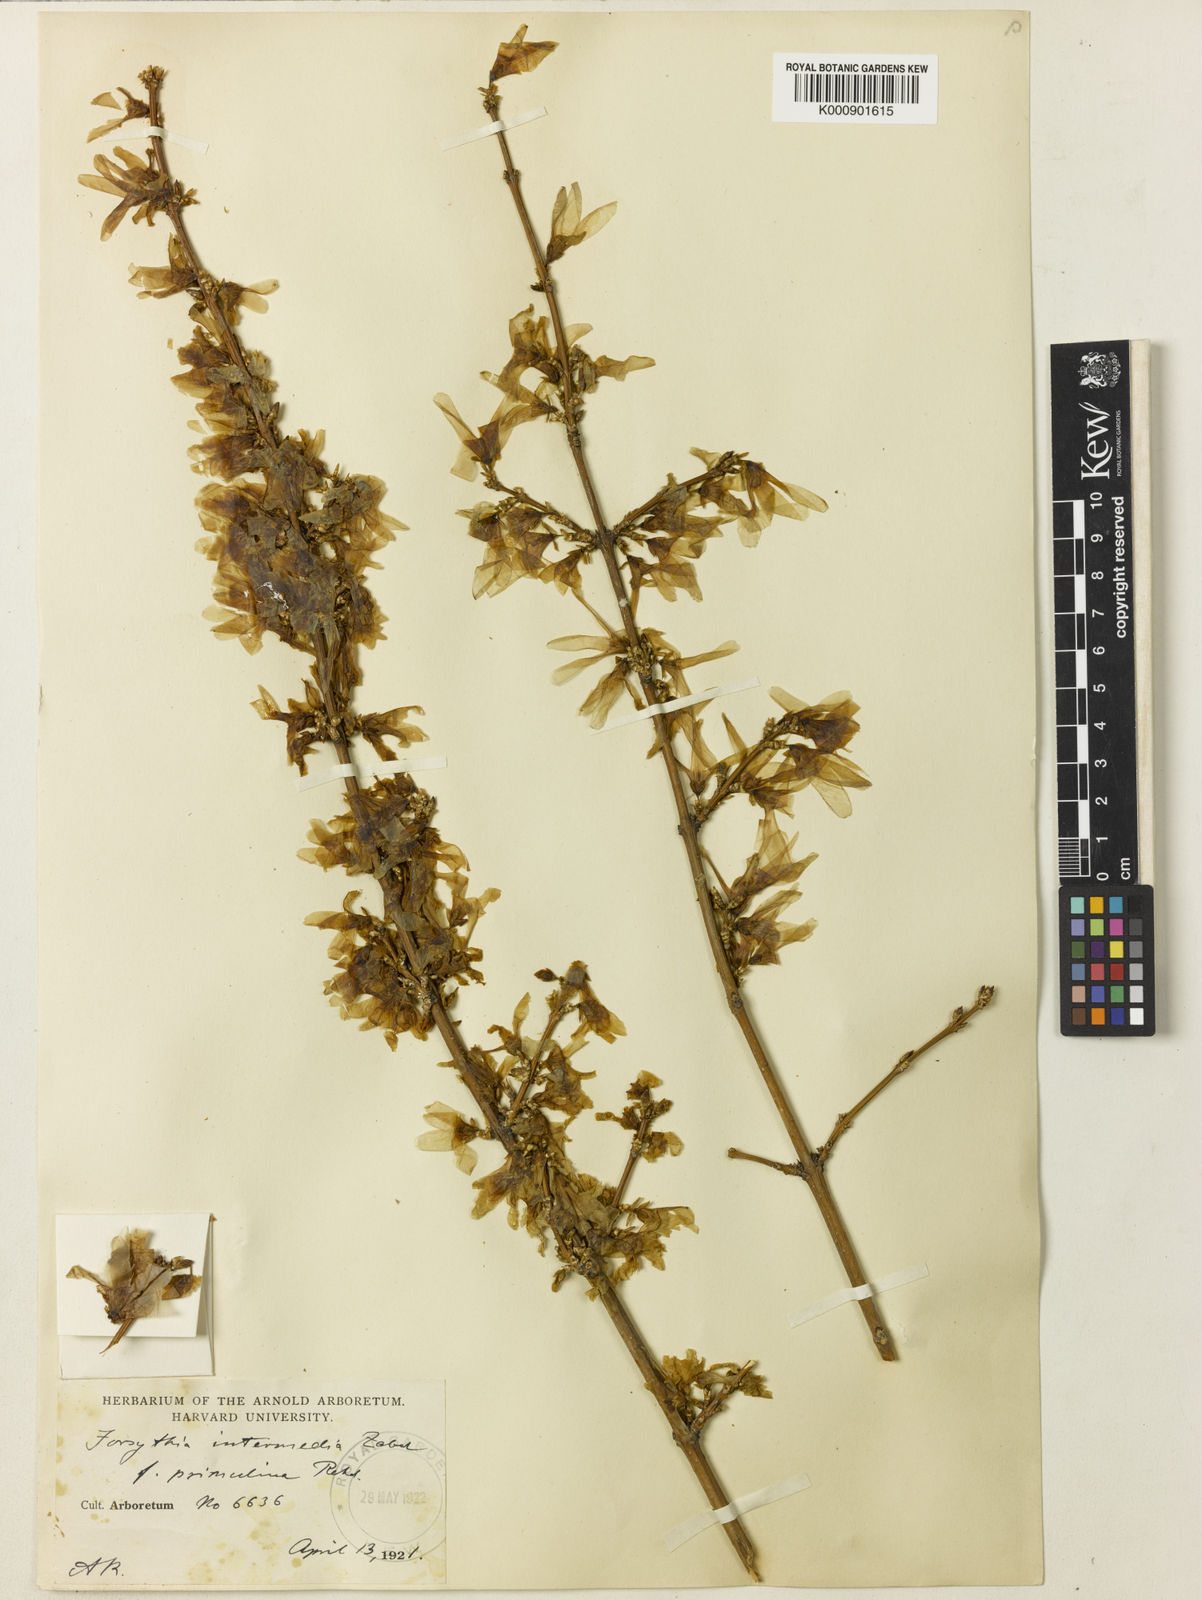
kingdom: Plantae
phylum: Tracheophyta
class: Magnoliopsida
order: Lamiales
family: Oleaceae
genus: Forsythia
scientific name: Forsythia intermedia
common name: Forsythia
